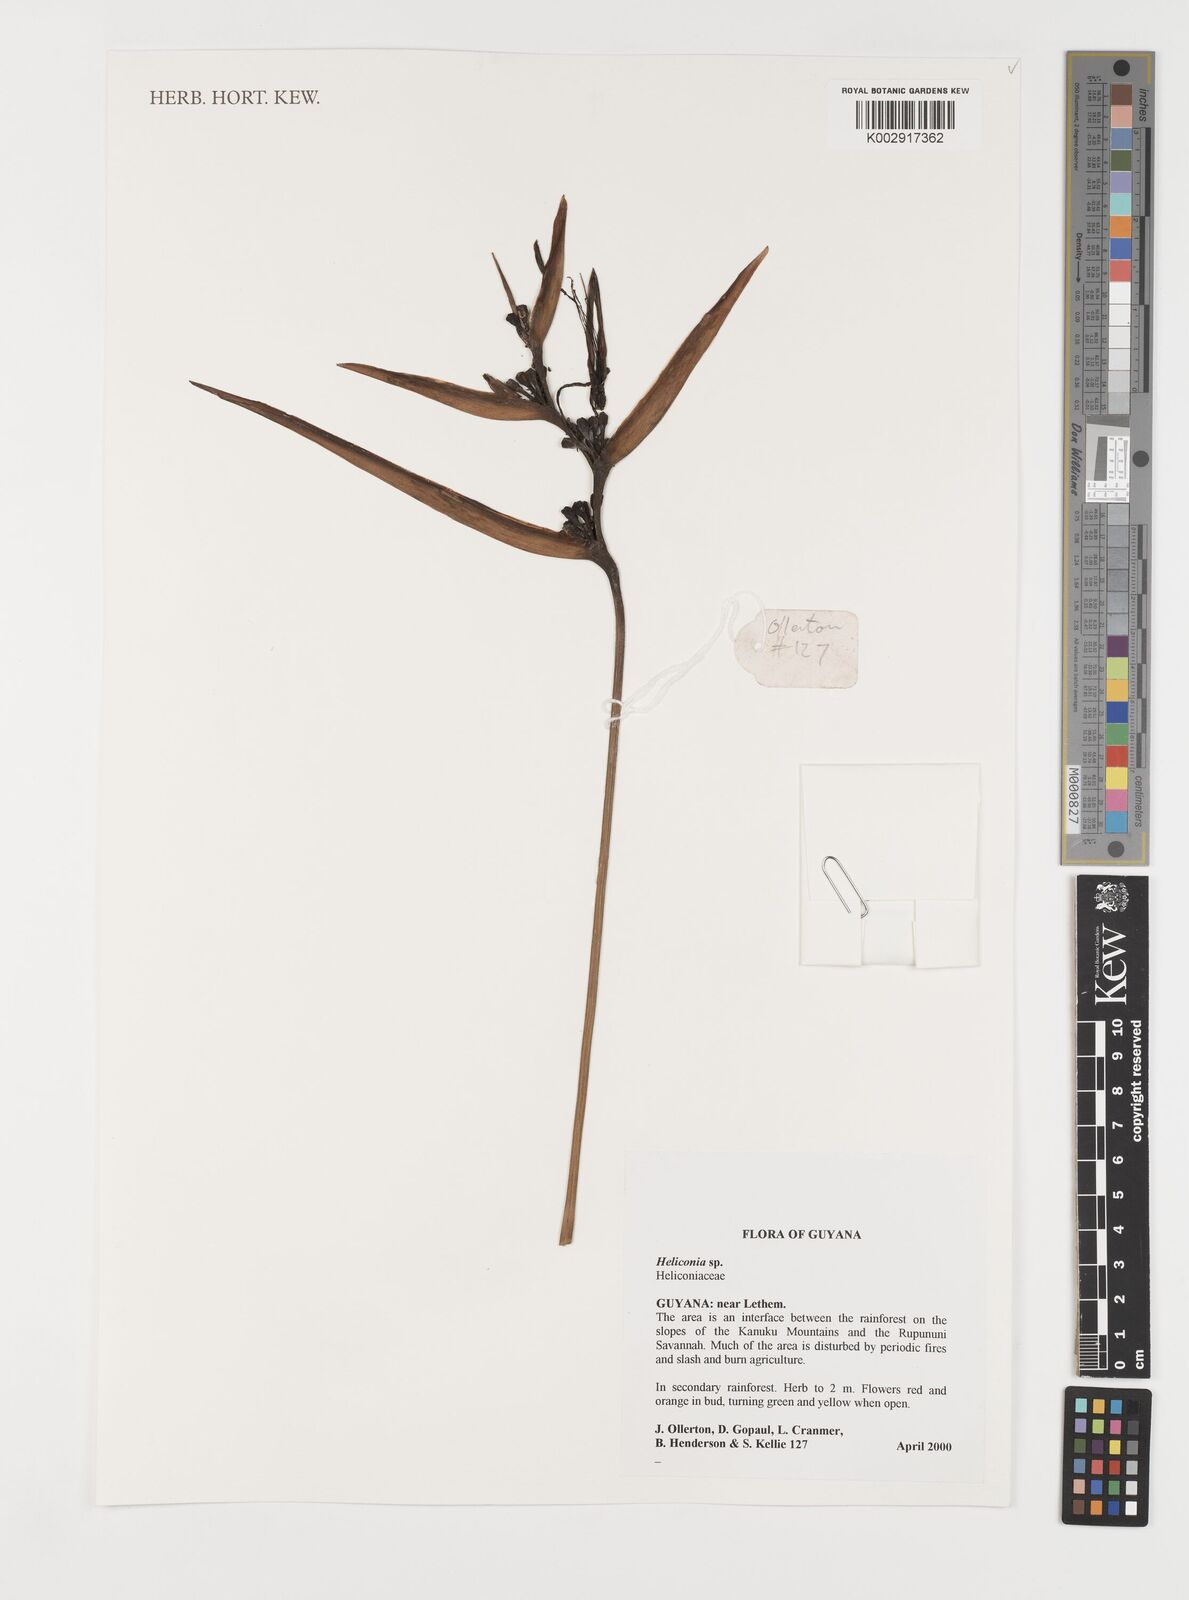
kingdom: Plantae
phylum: Tracheophyta
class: Liliopsida
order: Zingiberales
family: Heliconiaceae
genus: Heliconia
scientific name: Heliconia
